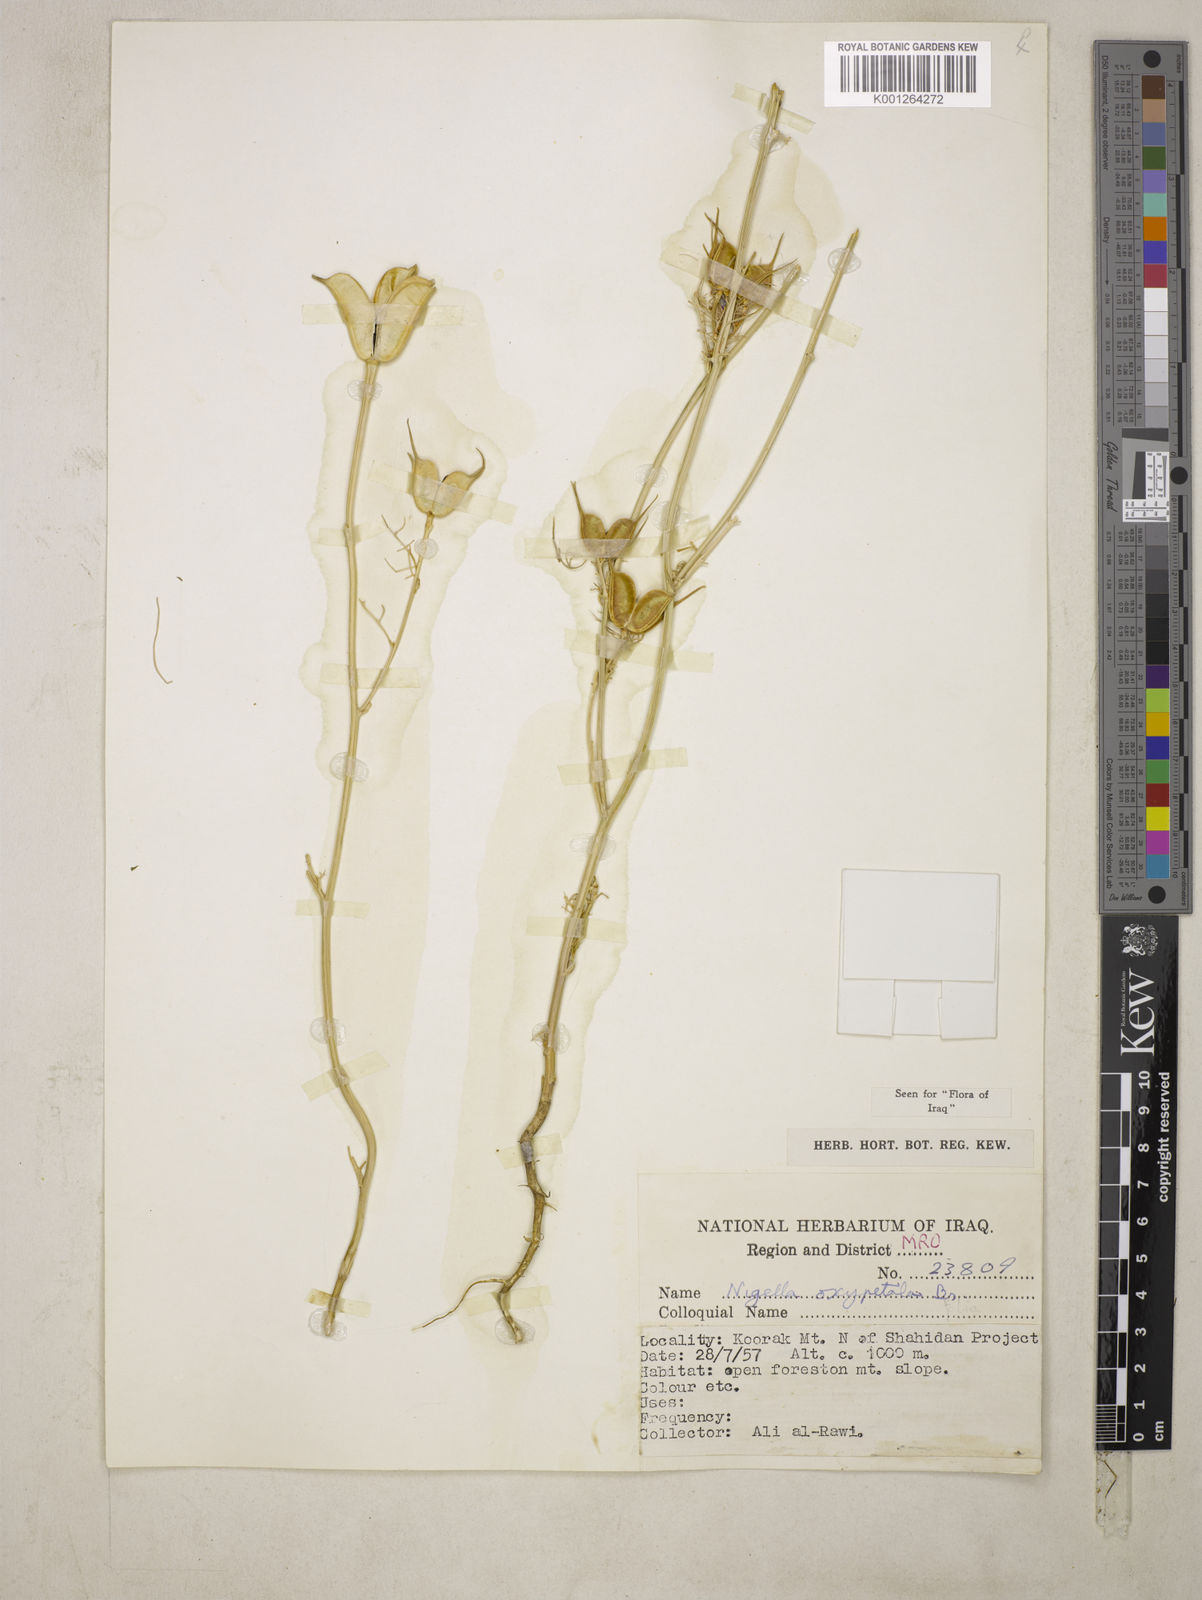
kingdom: Plantae
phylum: Tracheophyta
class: Magnoliopsida
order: Ranunculales
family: Ranunculaceae
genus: Nigella
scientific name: Nigella oxypetala
